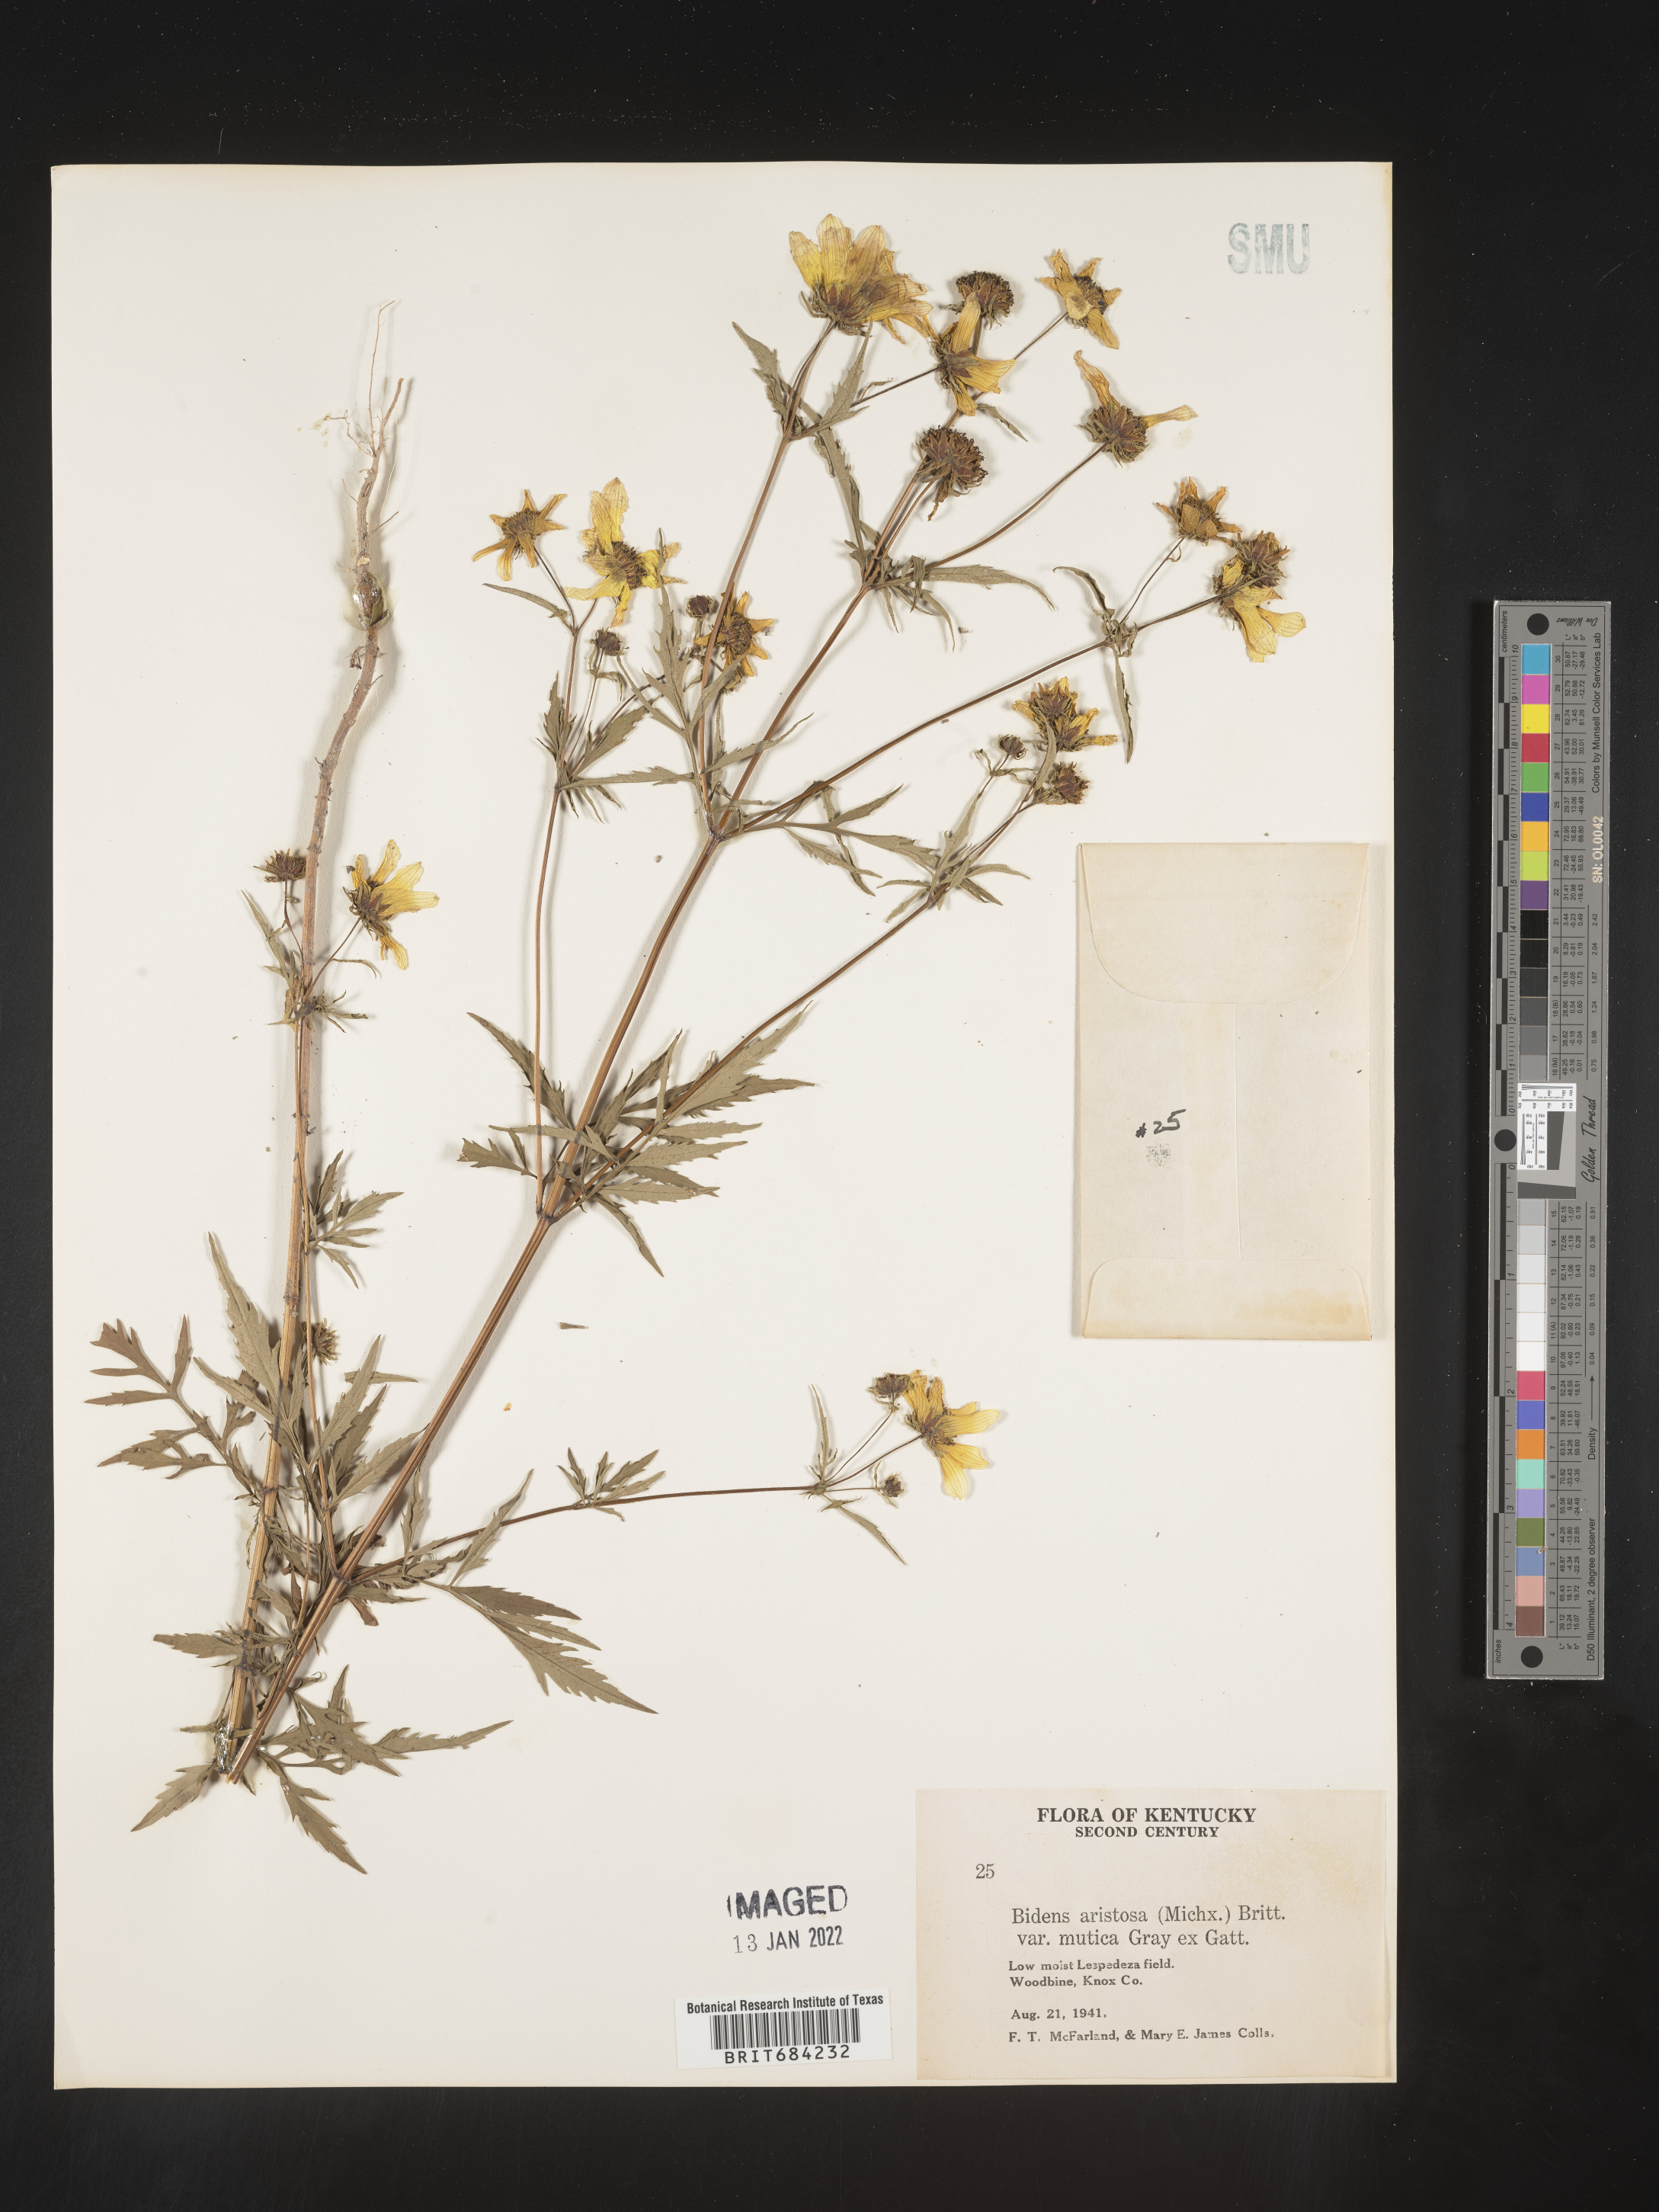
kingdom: Plantae
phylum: Tracheophyta
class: Magnoliopsida
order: Asterales
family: Asteraceae
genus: Bidens
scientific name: Bidens aristosa
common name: Western tickseed
